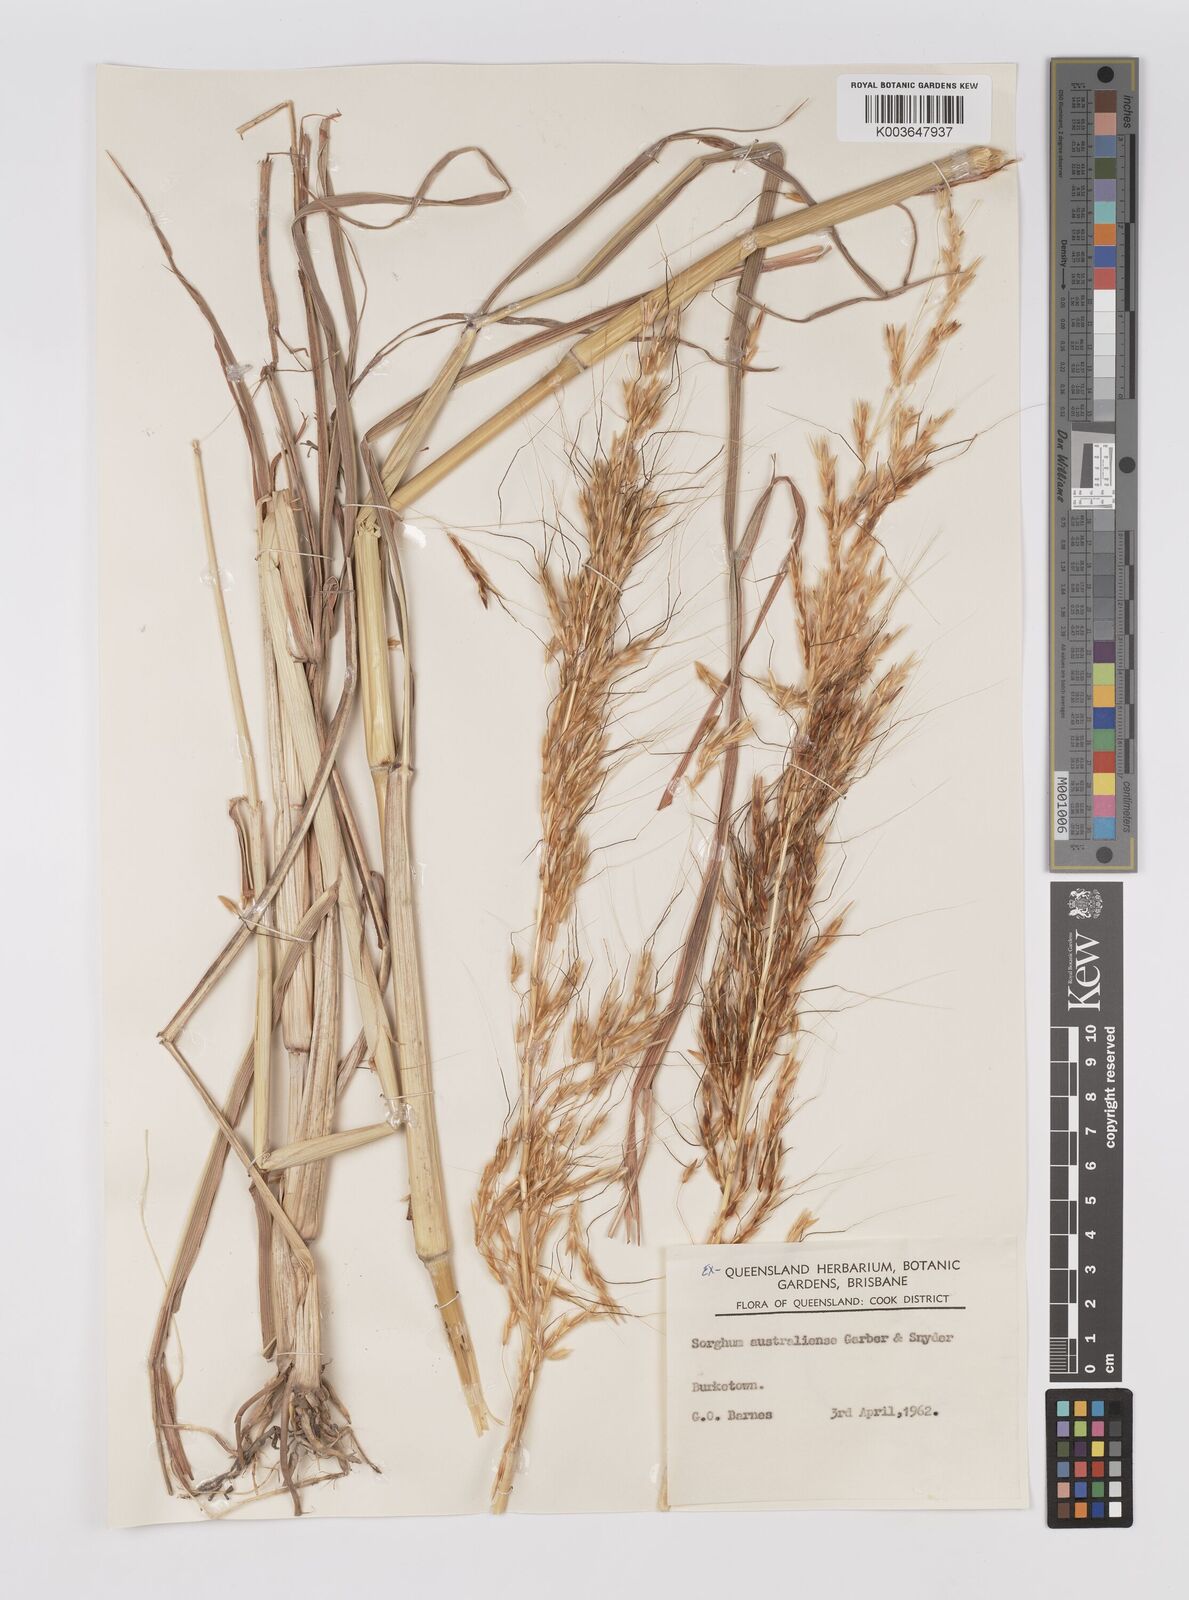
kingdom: Plantae
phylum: Tracheophyta
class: Liliopsida
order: Poales
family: Poaceae
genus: Sarga
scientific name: Sarga timorensis
